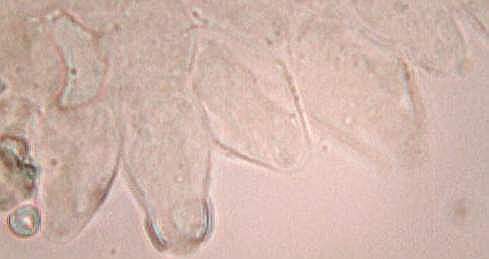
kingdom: Fungi
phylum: Basidiomycota
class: Agaricomycetes
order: Agaricales
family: Strophariaceae
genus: Pholiota
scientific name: Pholiota scamba
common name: dværg-skælhat
